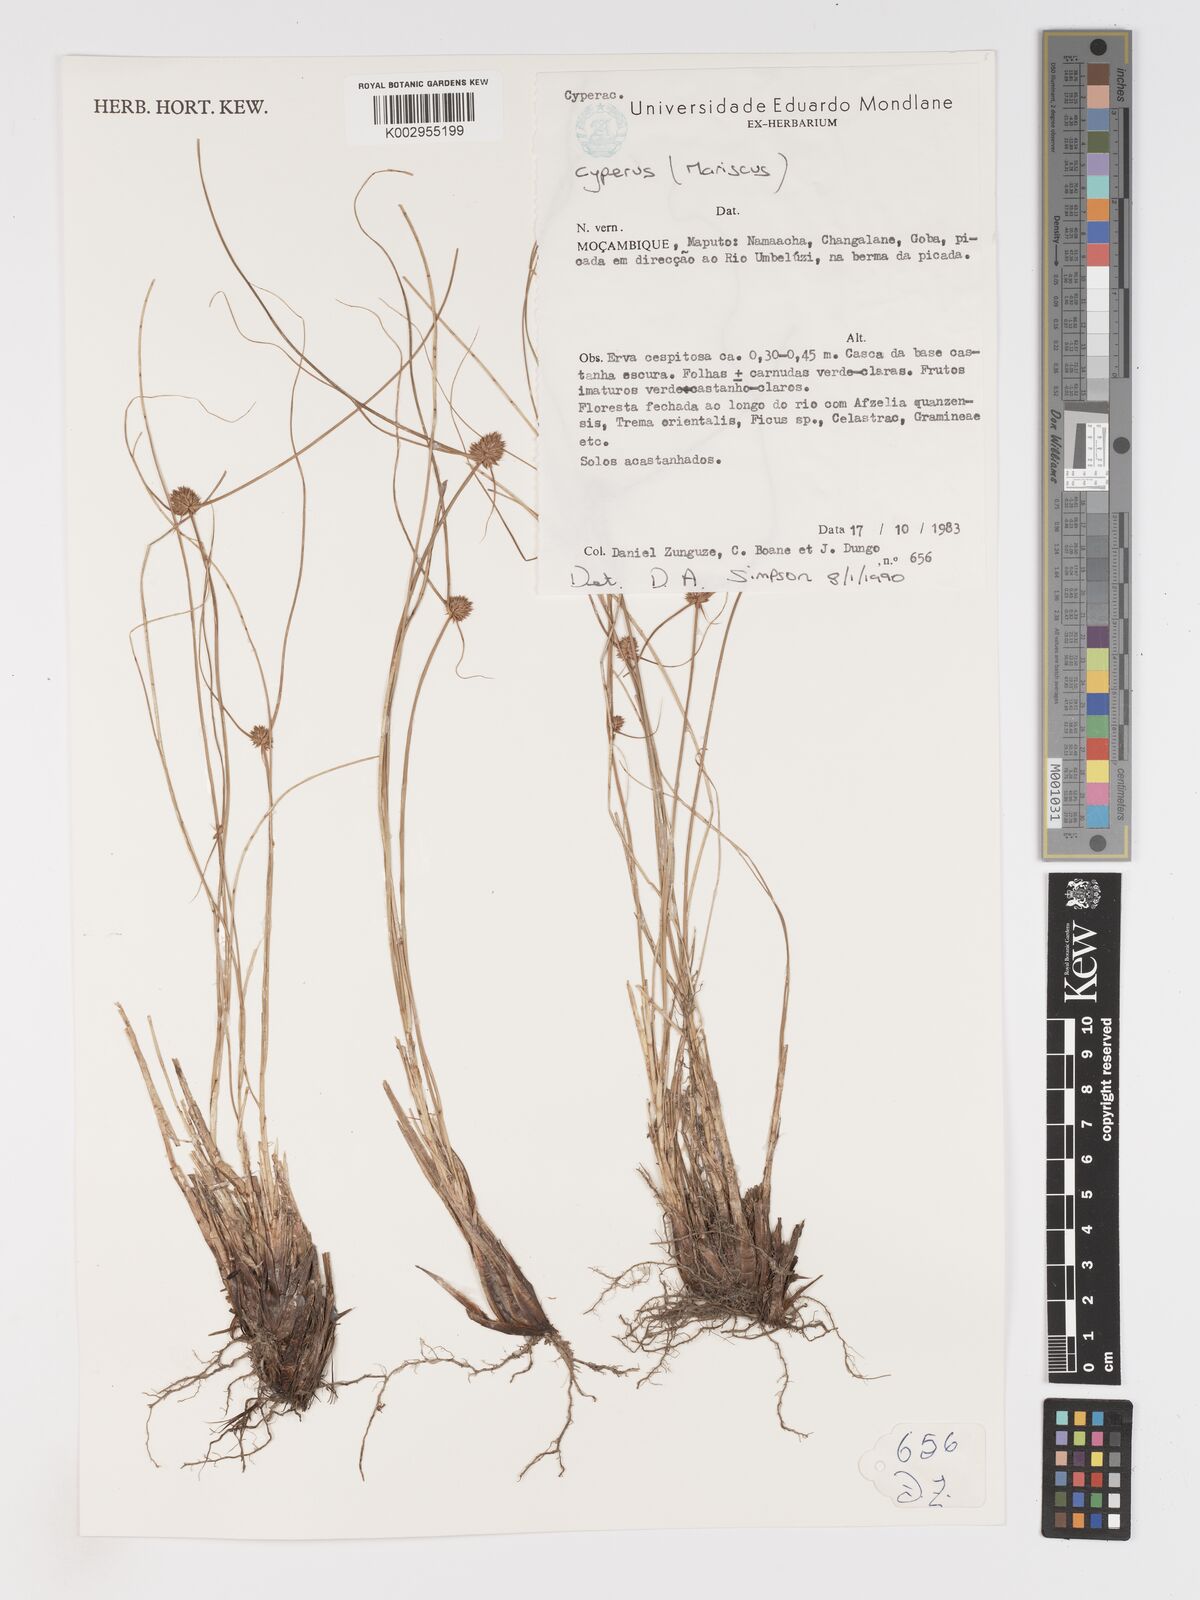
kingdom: Plantae
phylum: Tracheophyta
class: Liliopsida
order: Poales
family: Cyperaceae
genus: Cyperus
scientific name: Cyperus
